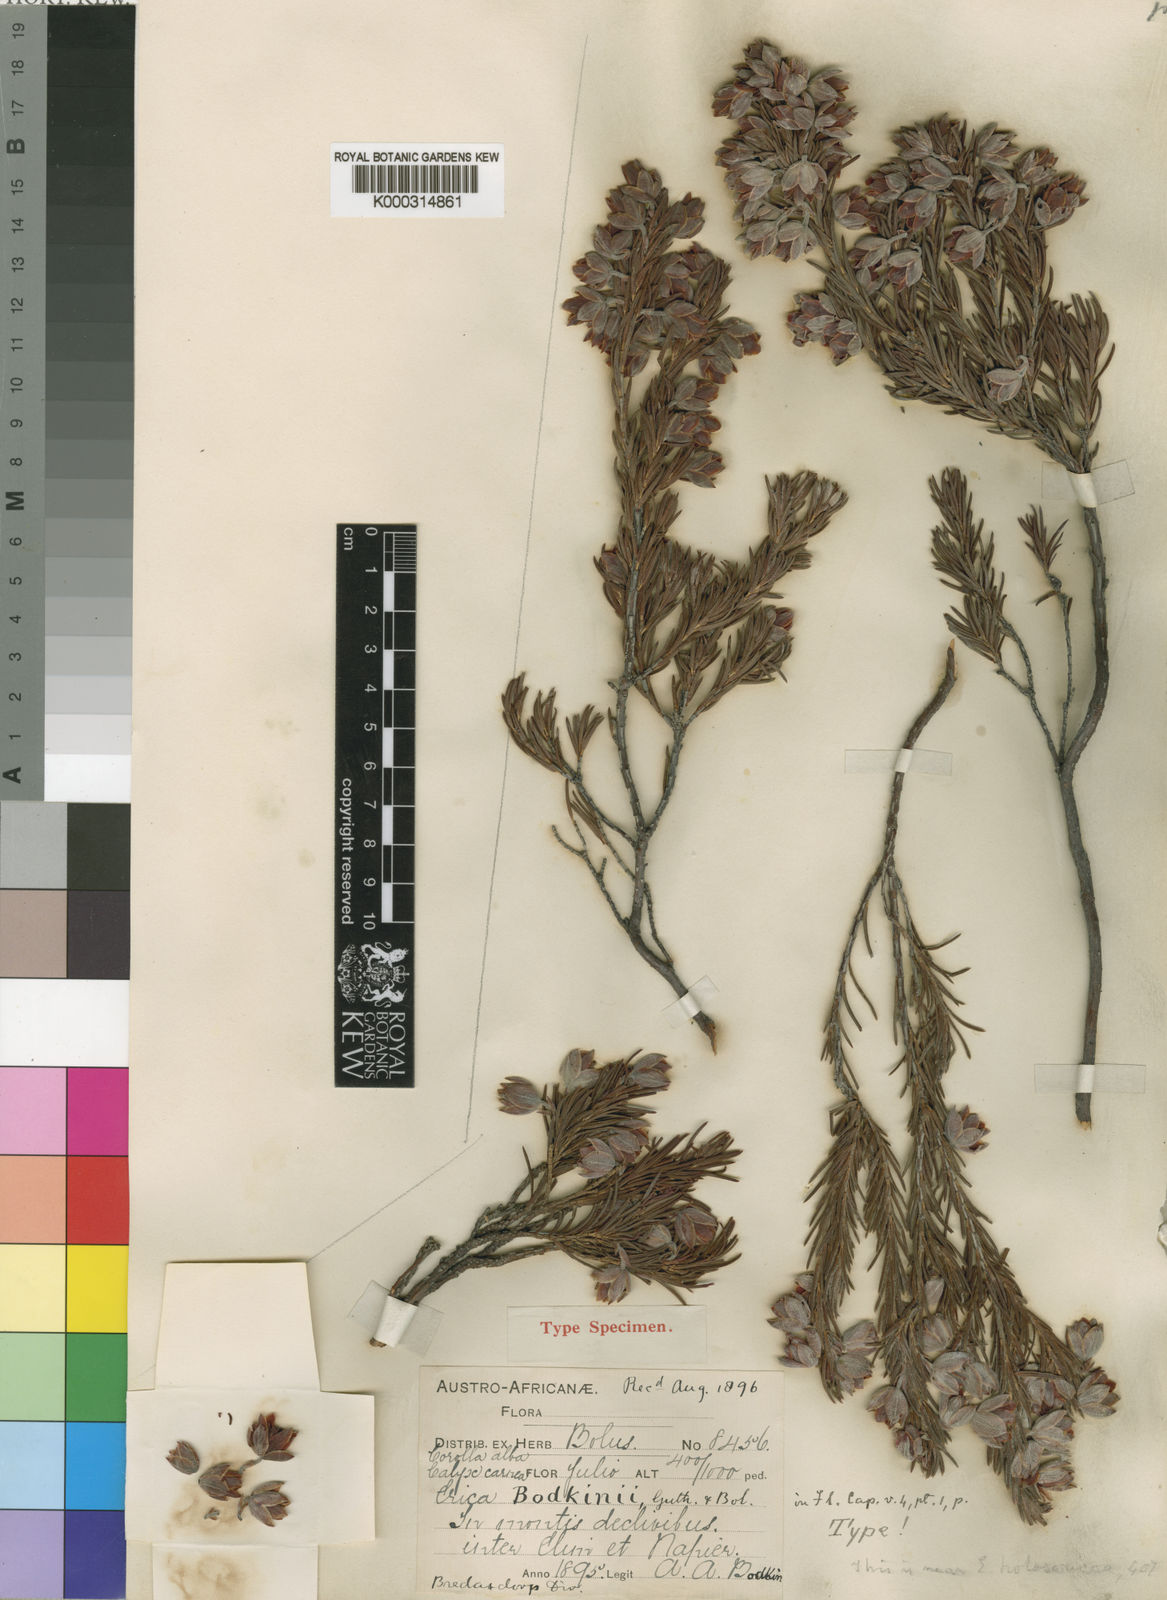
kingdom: Plantae
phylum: Tracheophyta
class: Magnoliopsida
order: Ericales
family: Ericaceae
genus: Erica
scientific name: Erica bodkinii
